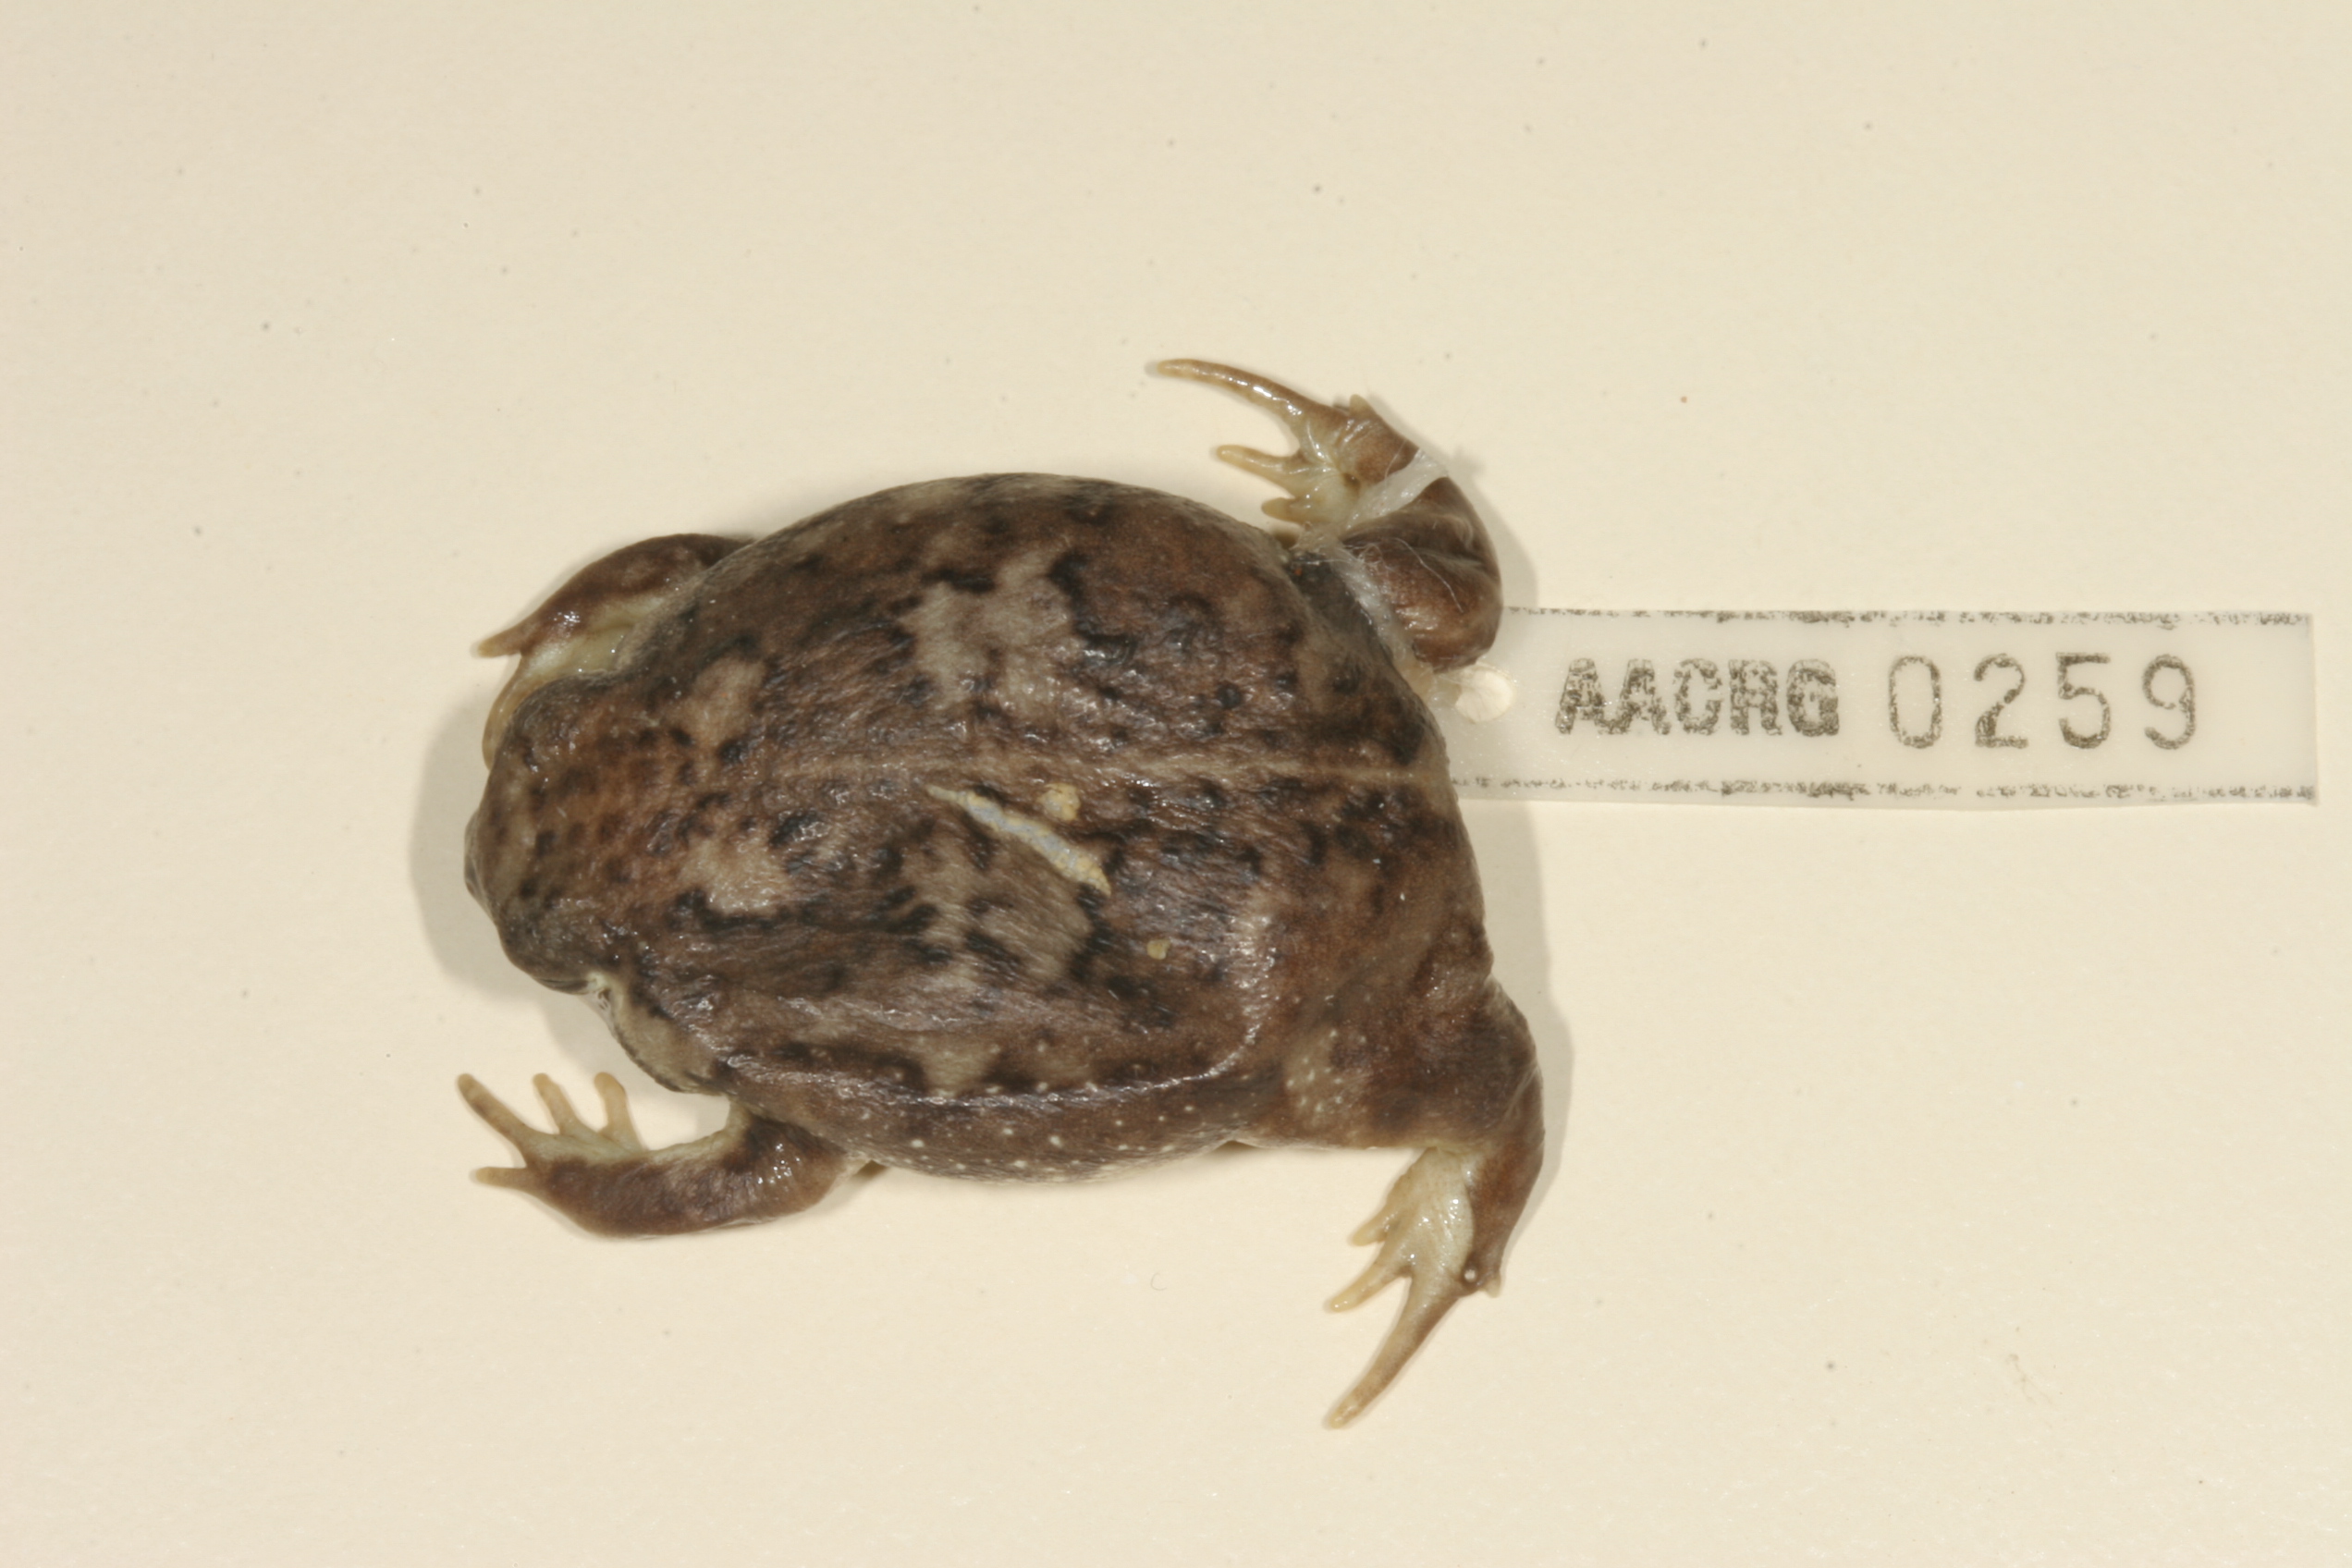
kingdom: Animalia
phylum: Chordata
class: Amphibia
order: Anura
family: Brevicipitidae
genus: Breviceps
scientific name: Breviceps adspersus
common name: Common rain frog
